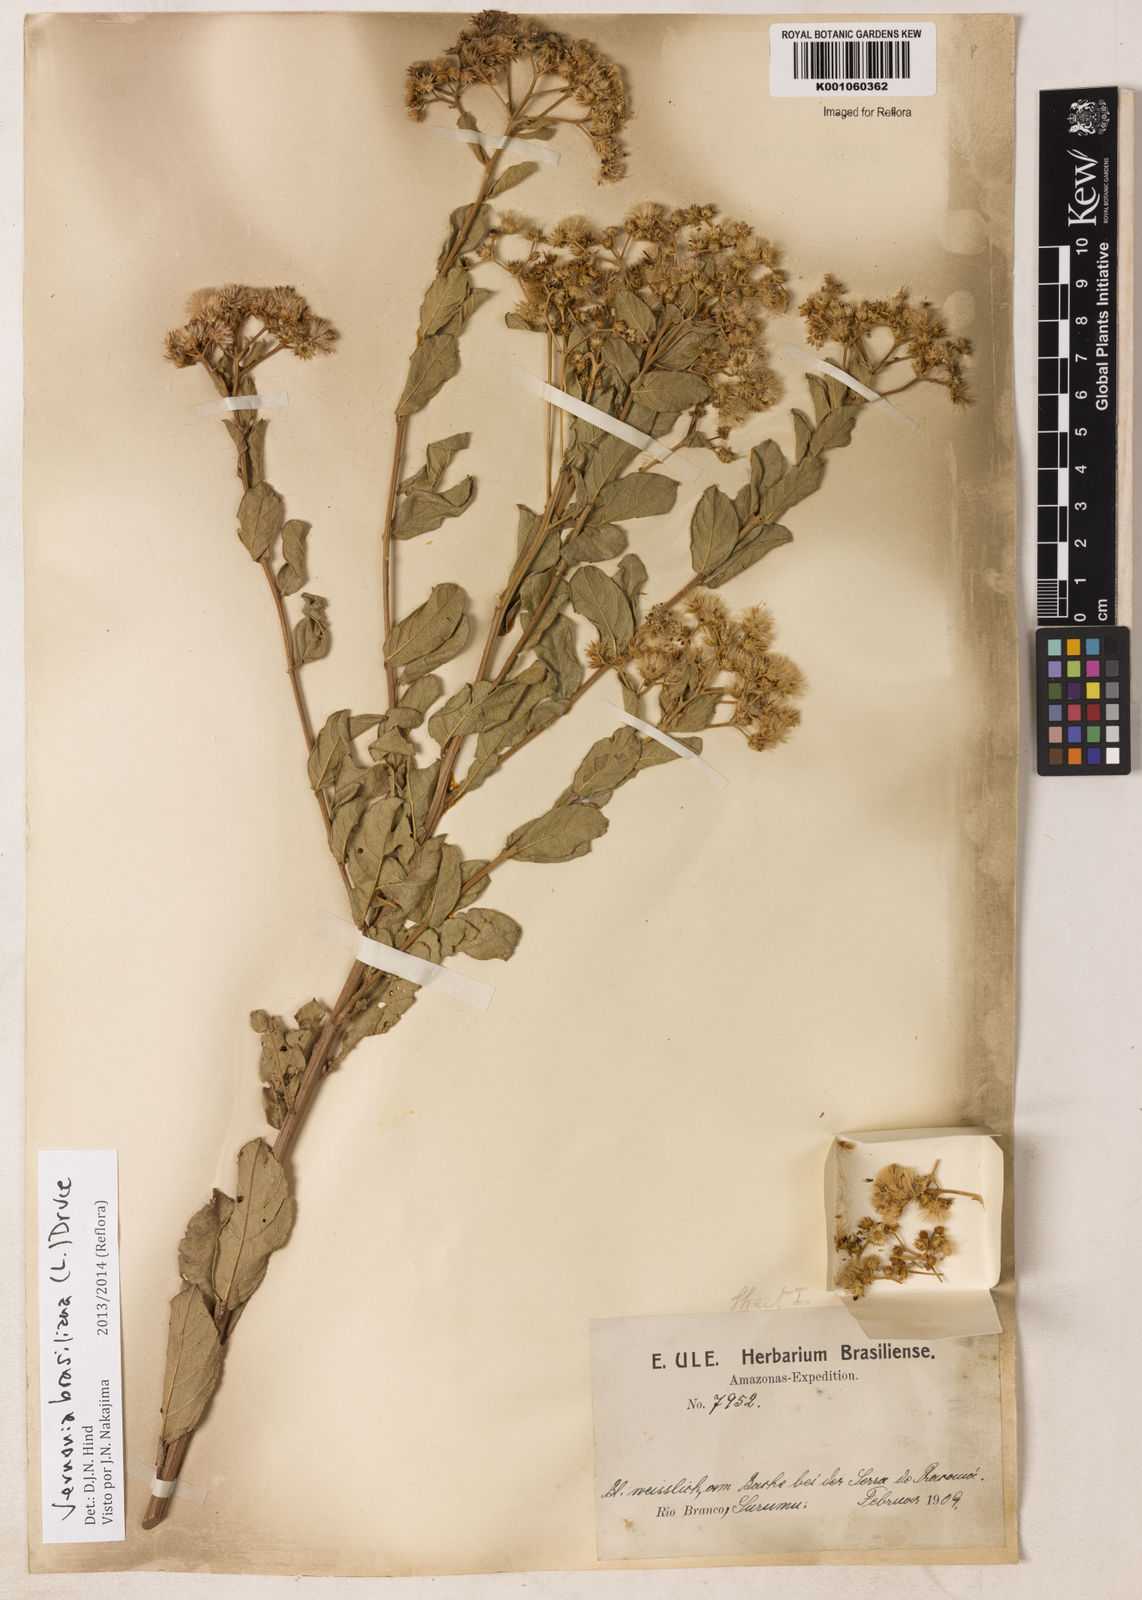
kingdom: Plantae
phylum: Tracheophyta
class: Magnoliopsida
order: Asterales
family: Asteraceae
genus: Vernonanthura
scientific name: Vernonanthura brasiliana
